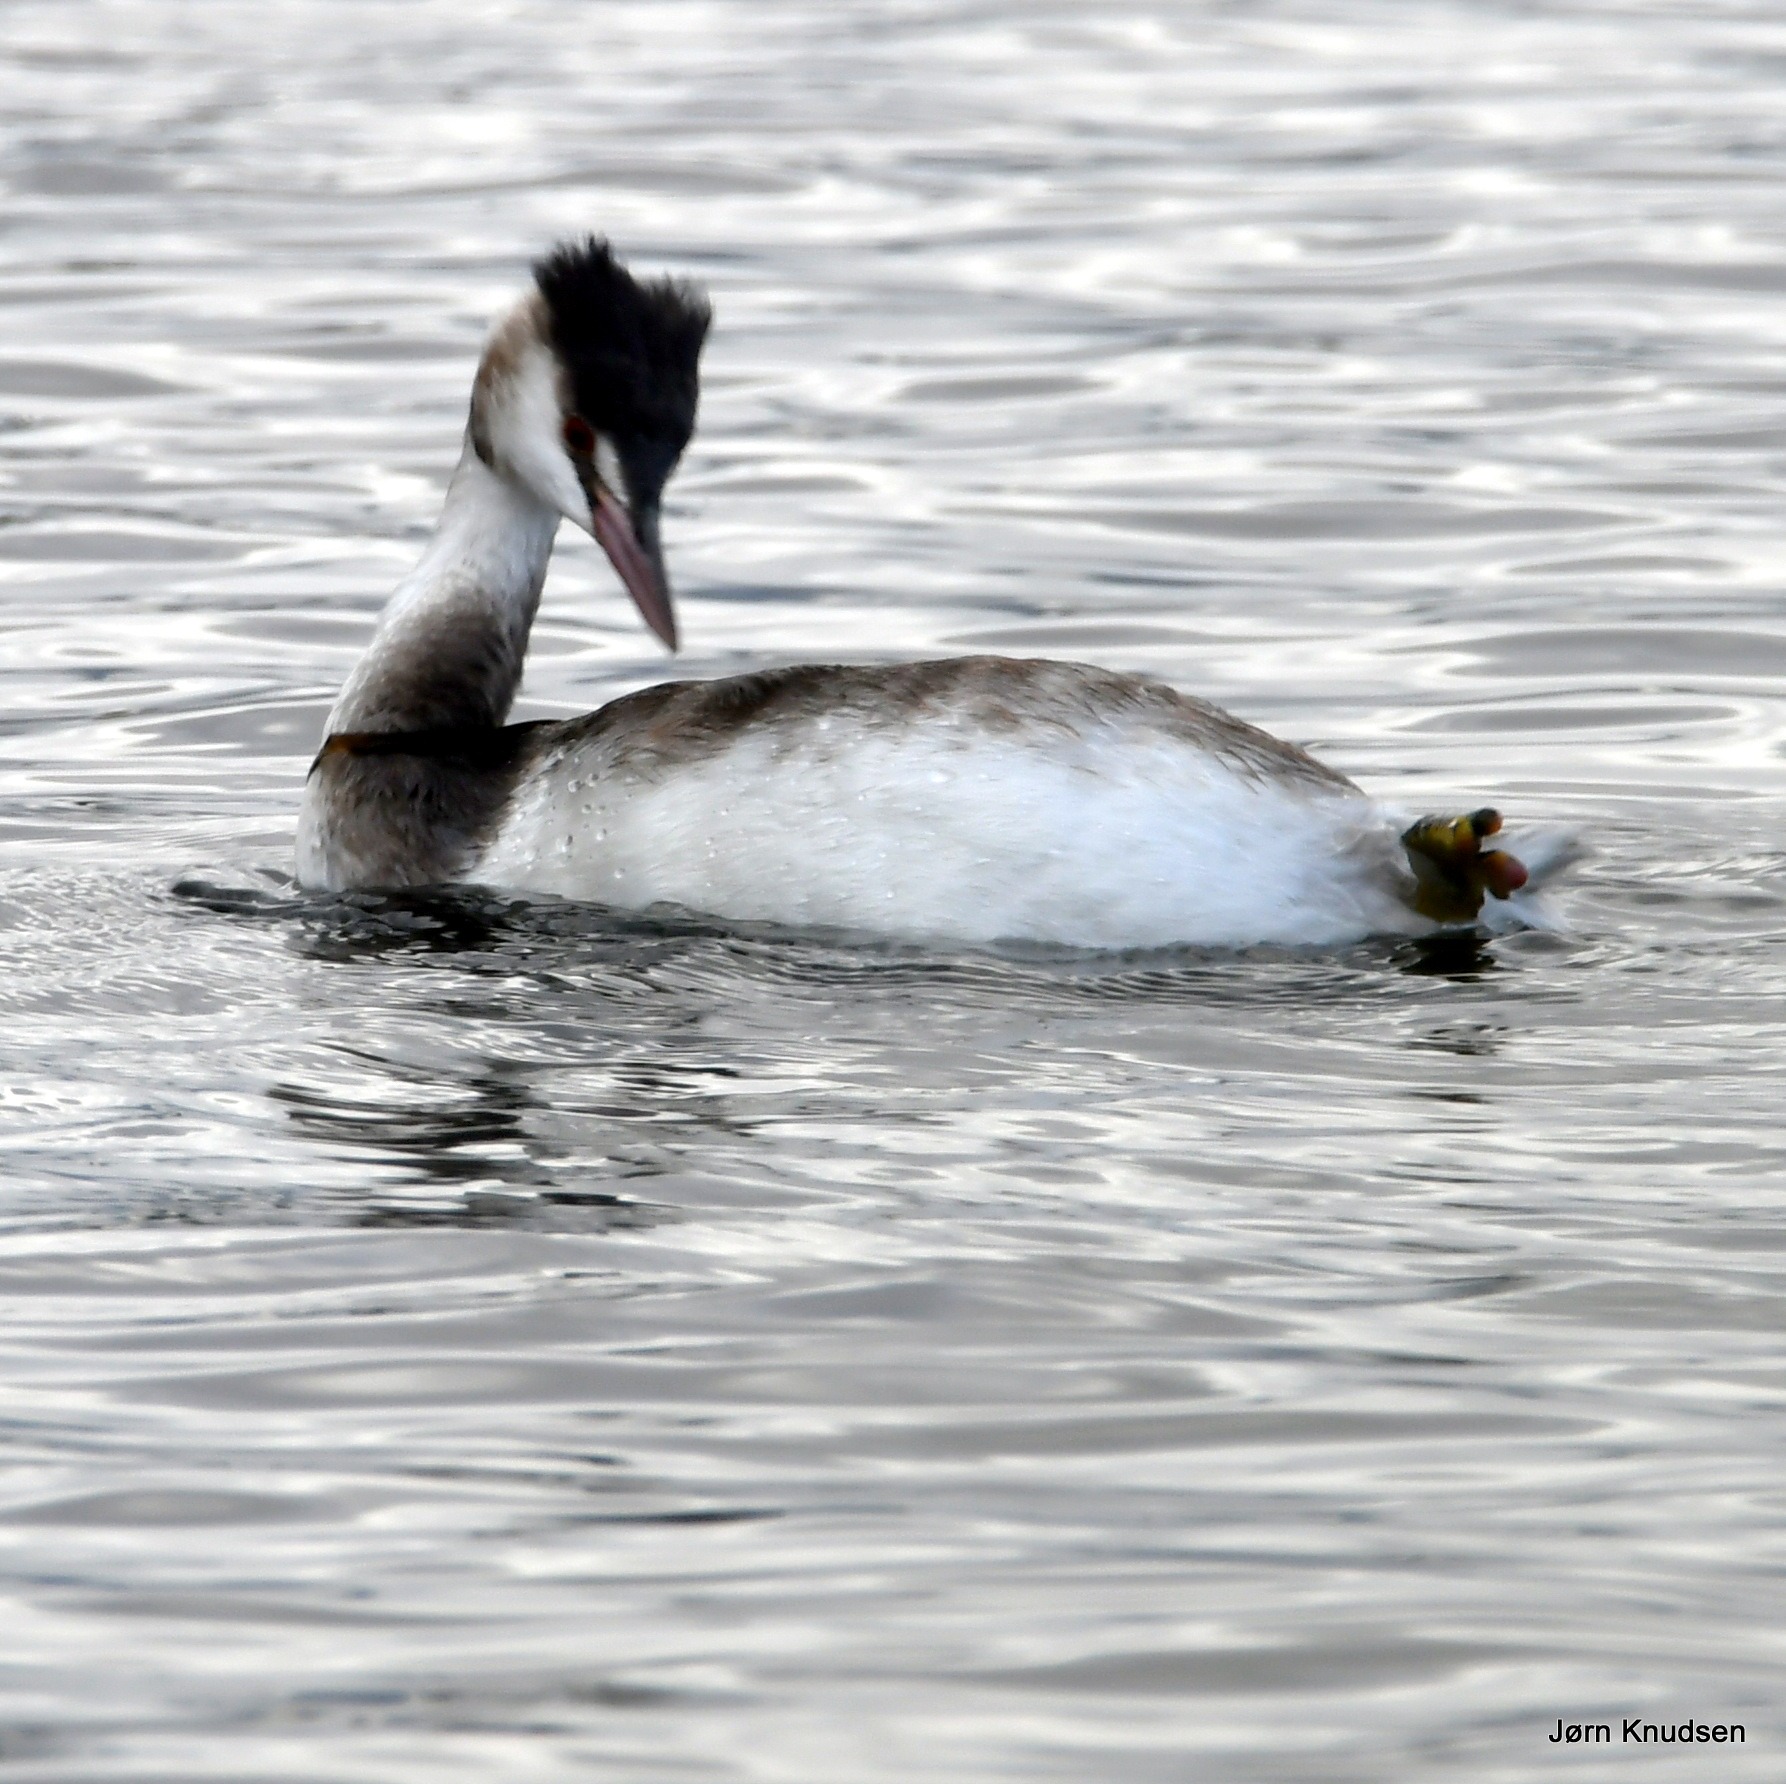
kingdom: Animalia
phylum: Chordata
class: Aves
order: Podicipediformes
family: Podicipedidae
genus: Podiceps
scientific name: Podiceps cristatus
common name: Toppet lappedykker
